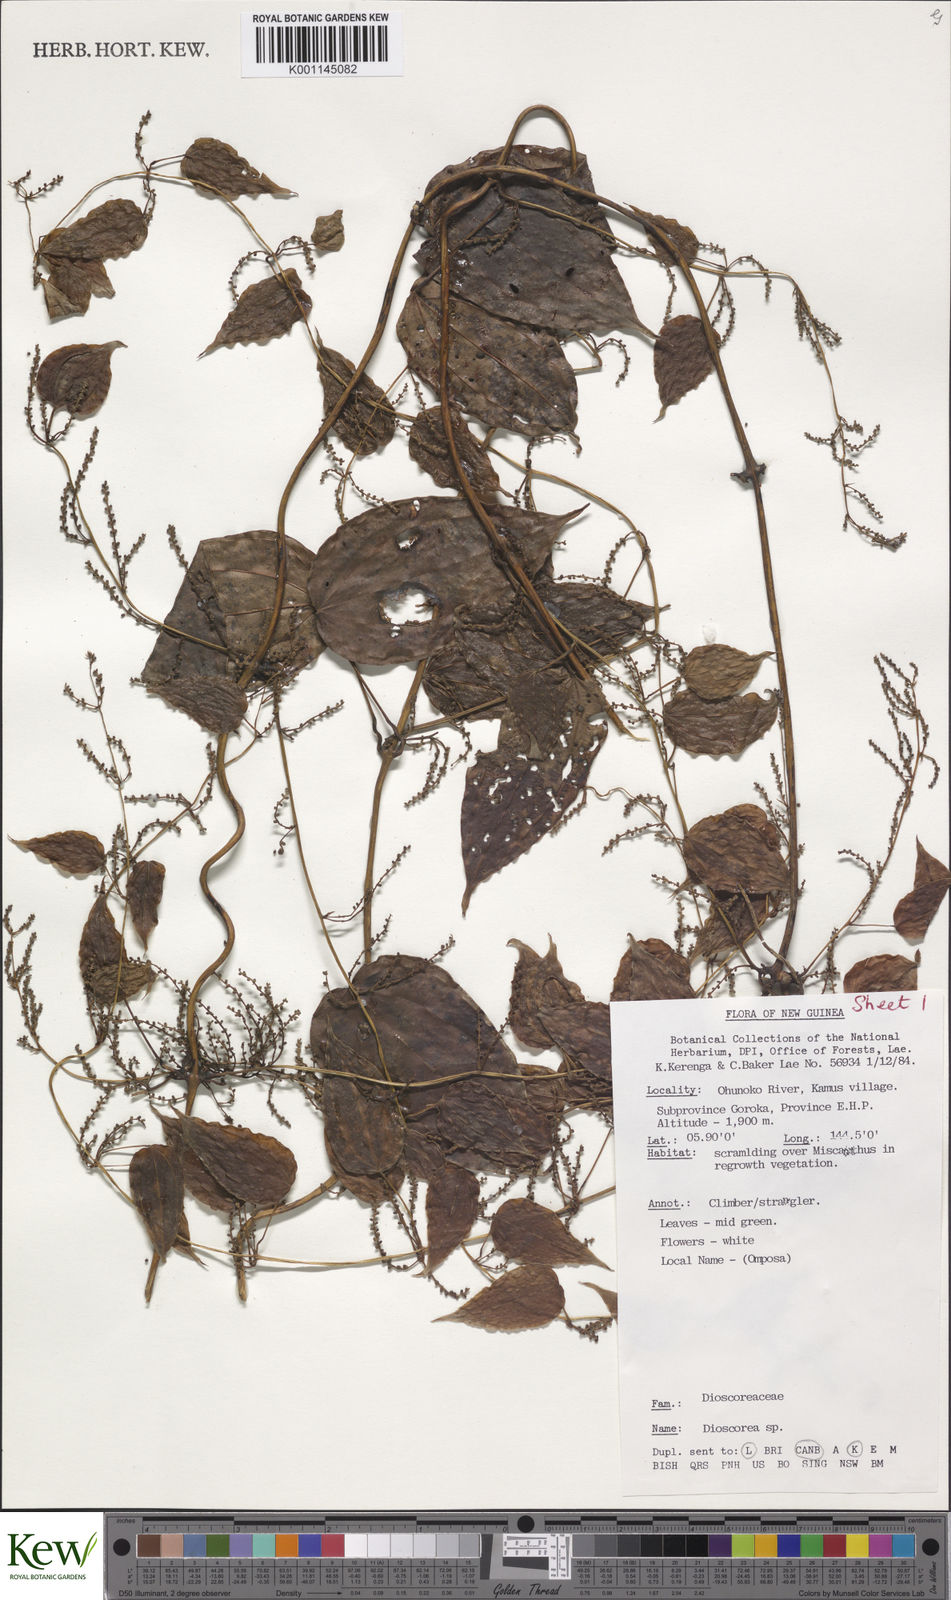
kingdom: Plantae
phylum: Tracheophyta
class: Liliopsida
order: Dioscoreales
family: Dioscoreaceae
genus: Dioscorea
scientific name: Dioscorea
